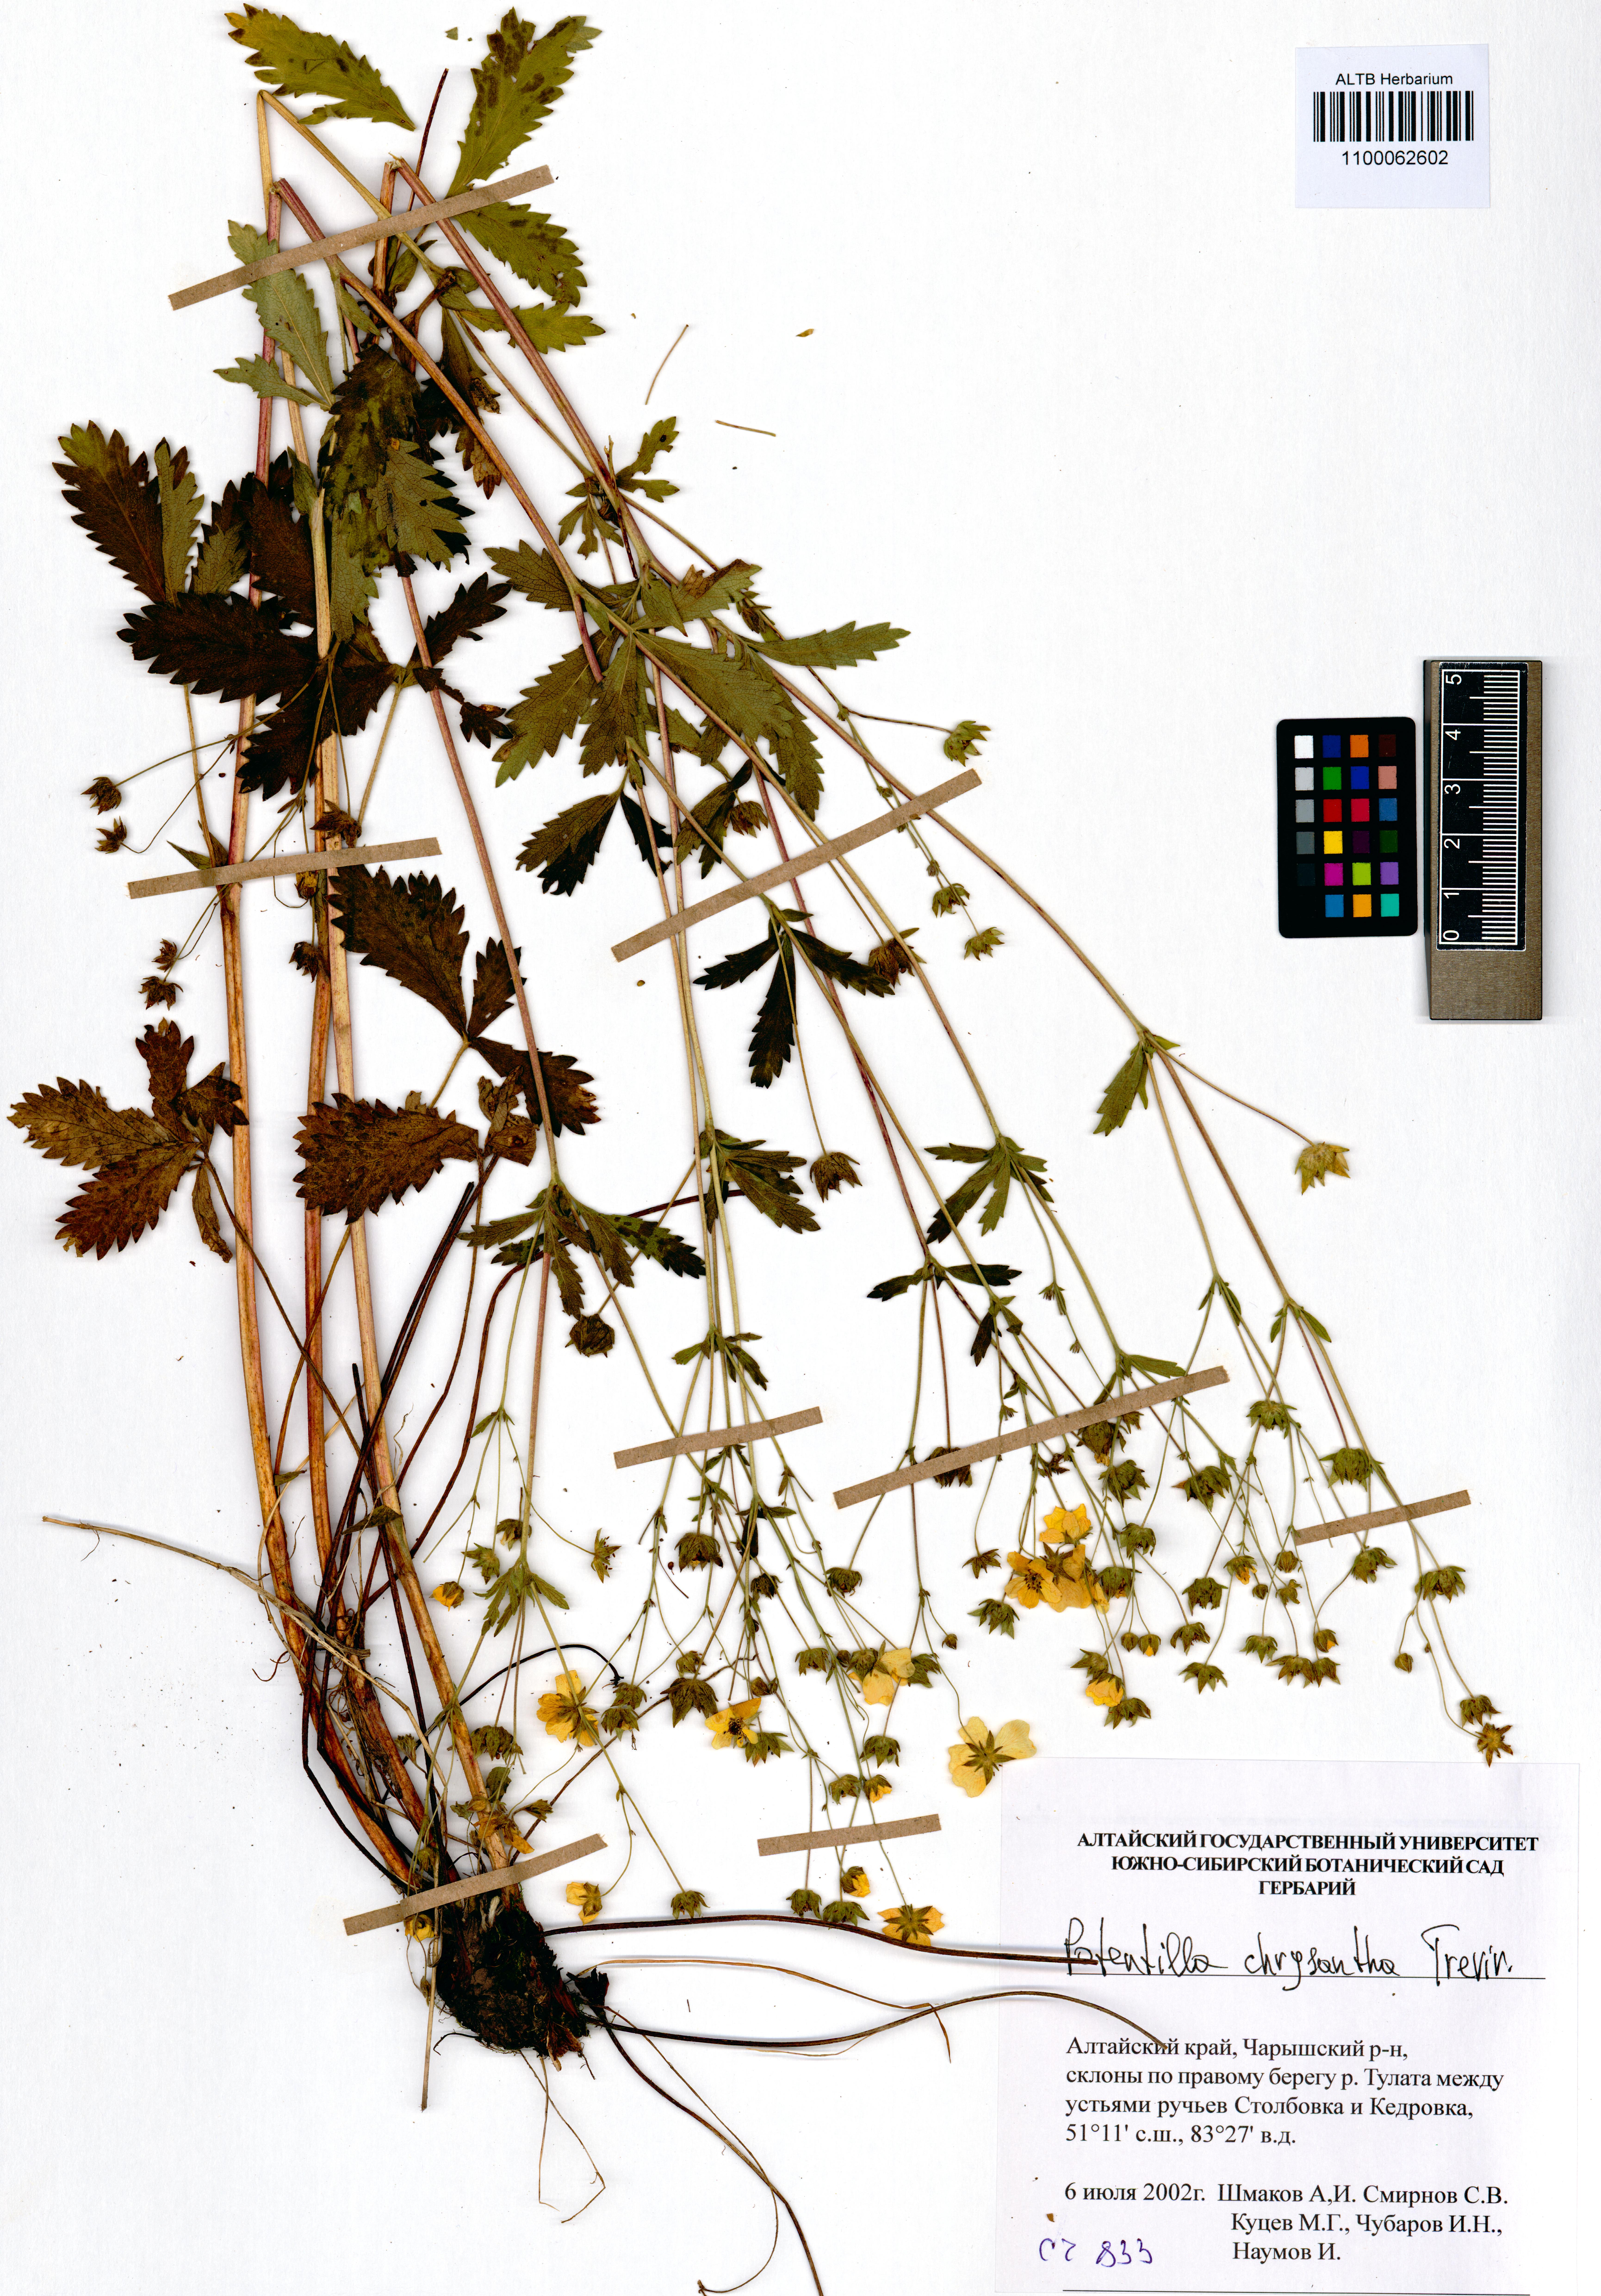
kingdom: Plantae
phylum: Tracheophyta
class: Magnoliopsida
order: Rosales
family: Rosaceae
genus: Potentilla
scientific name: Potentilla chrysantha
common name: Thuringian cinquefoil
